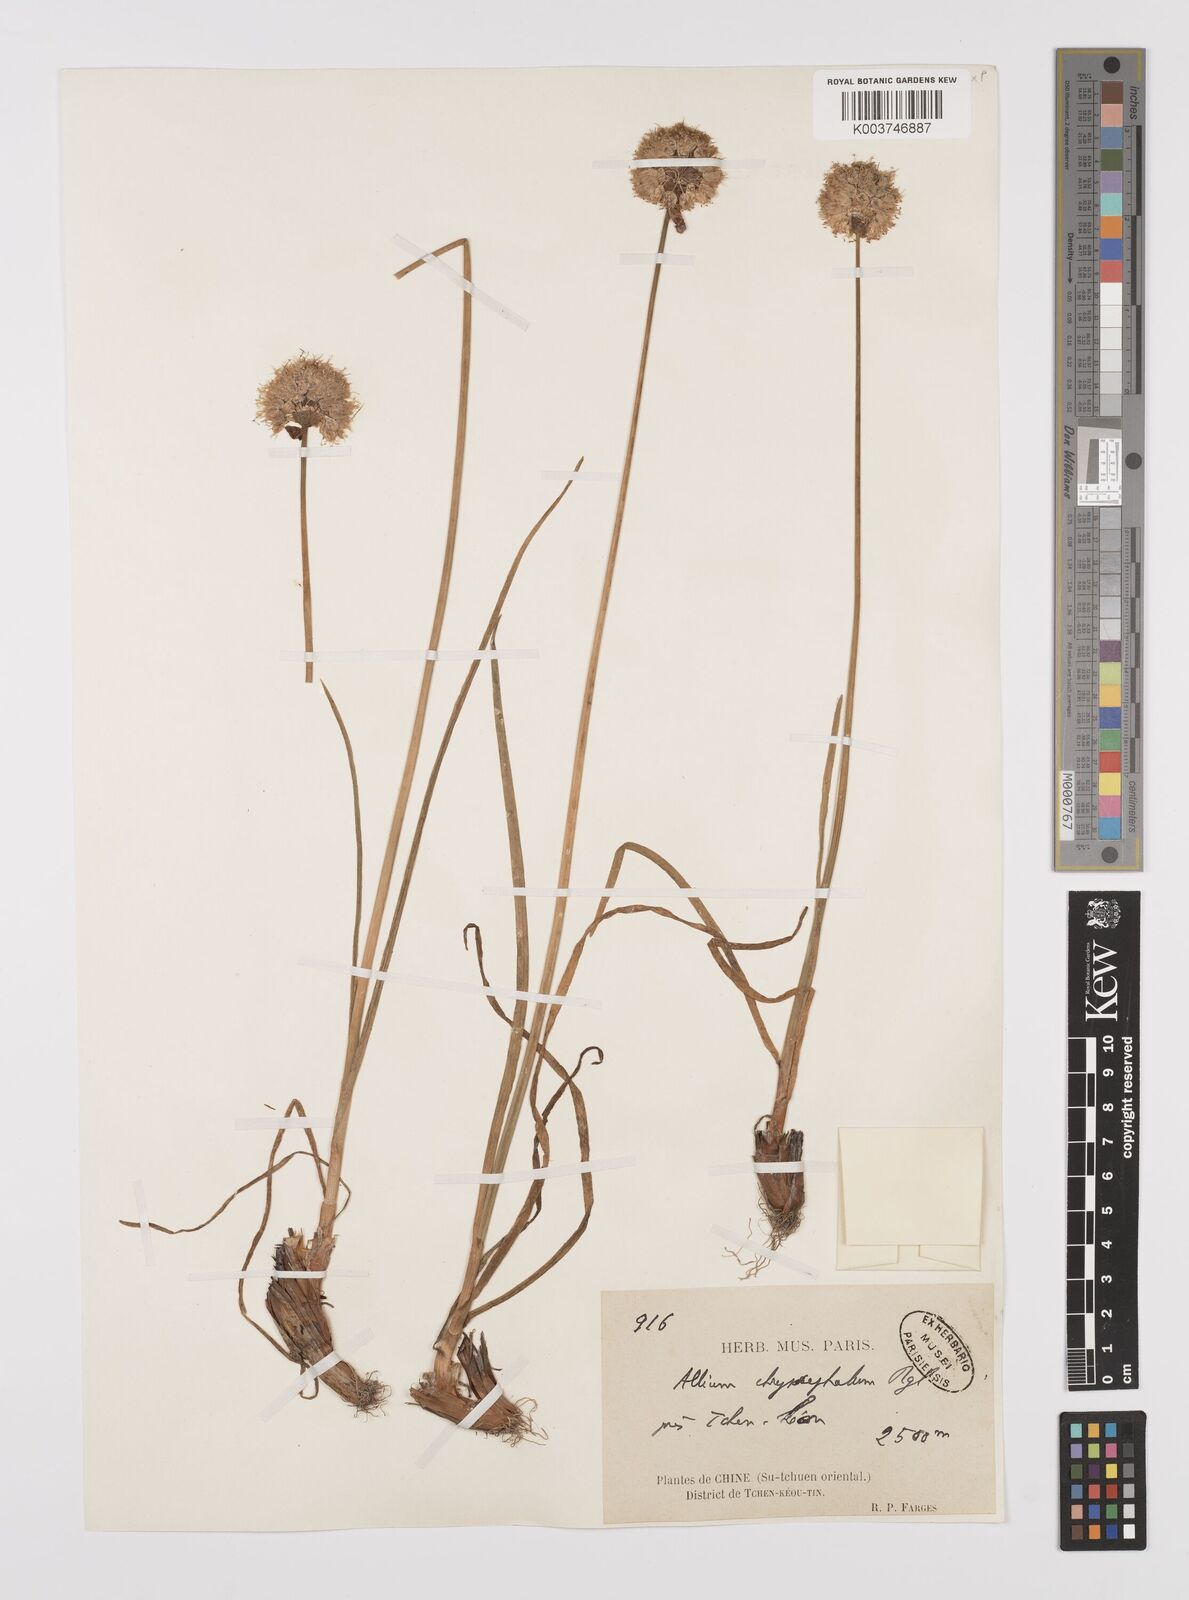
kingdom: Plantae
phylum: Tracheophyta
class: Liliopsida
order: Asparagales
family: Amaryllidaceae
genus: Allium
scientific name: Allium chrysocephalum
